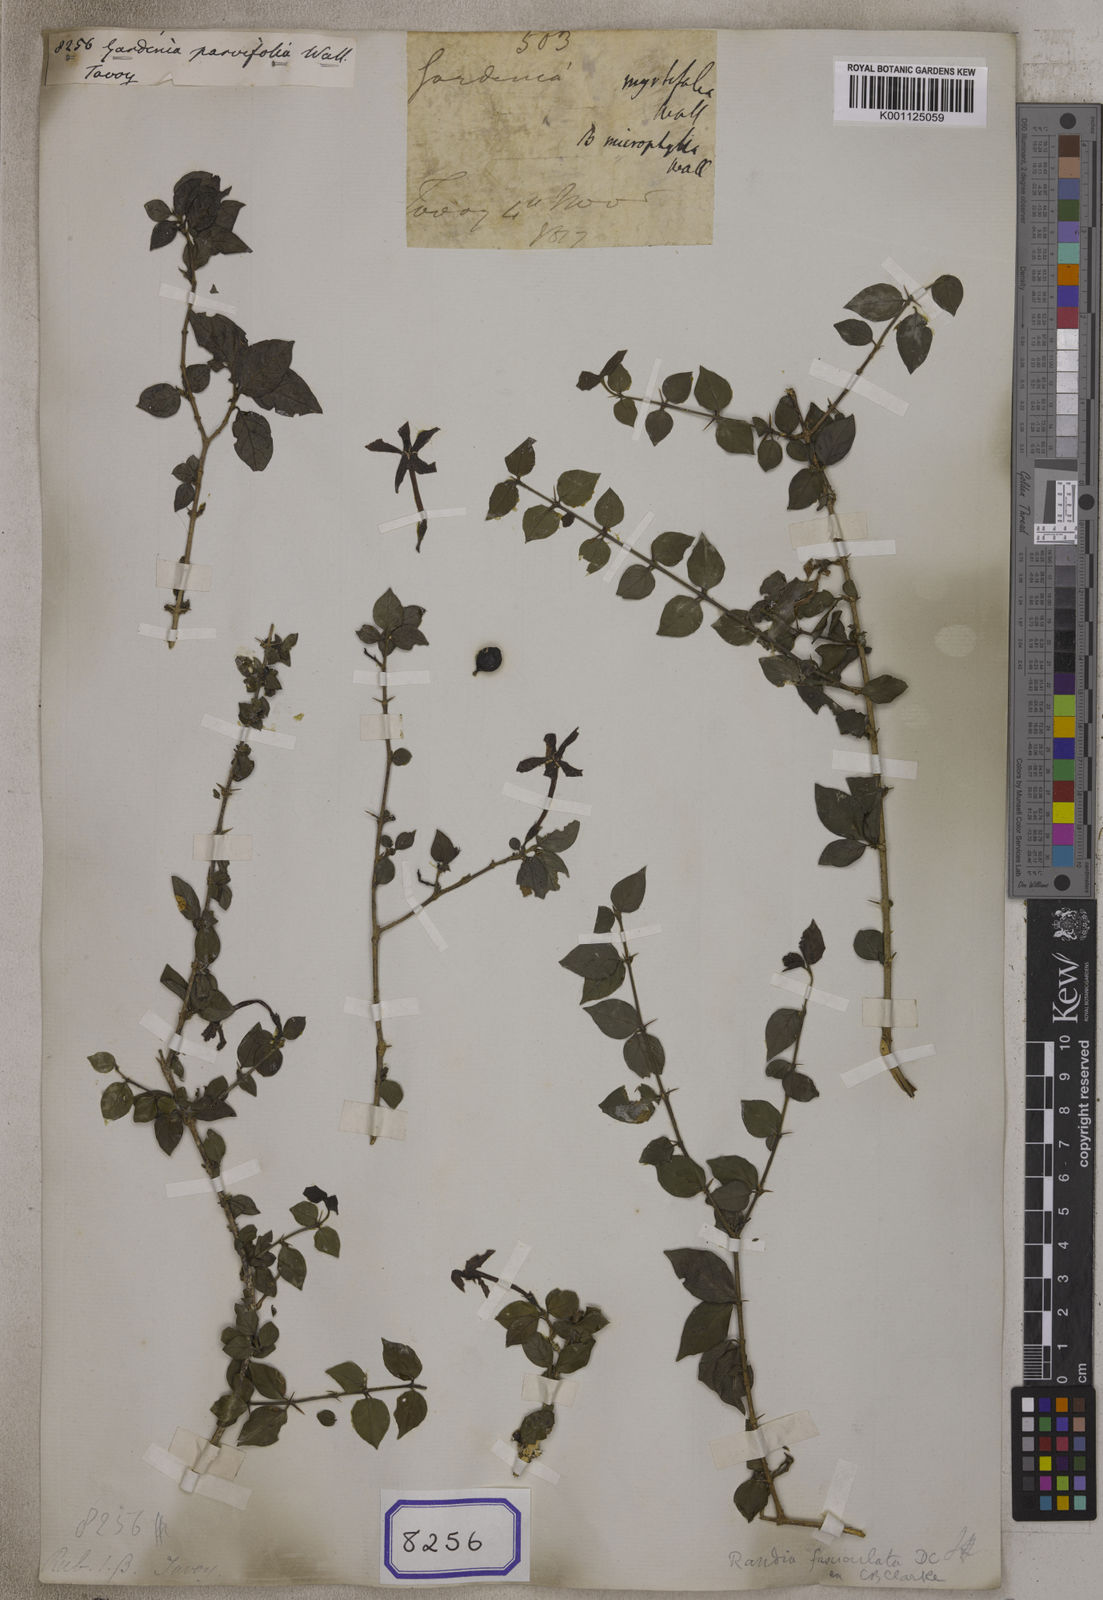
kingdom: Plantae
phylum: Tracheophyta
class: Magnoliopsida
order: Gentianales
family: Rubiaceae
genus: Gardenia
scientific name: Gardenia
